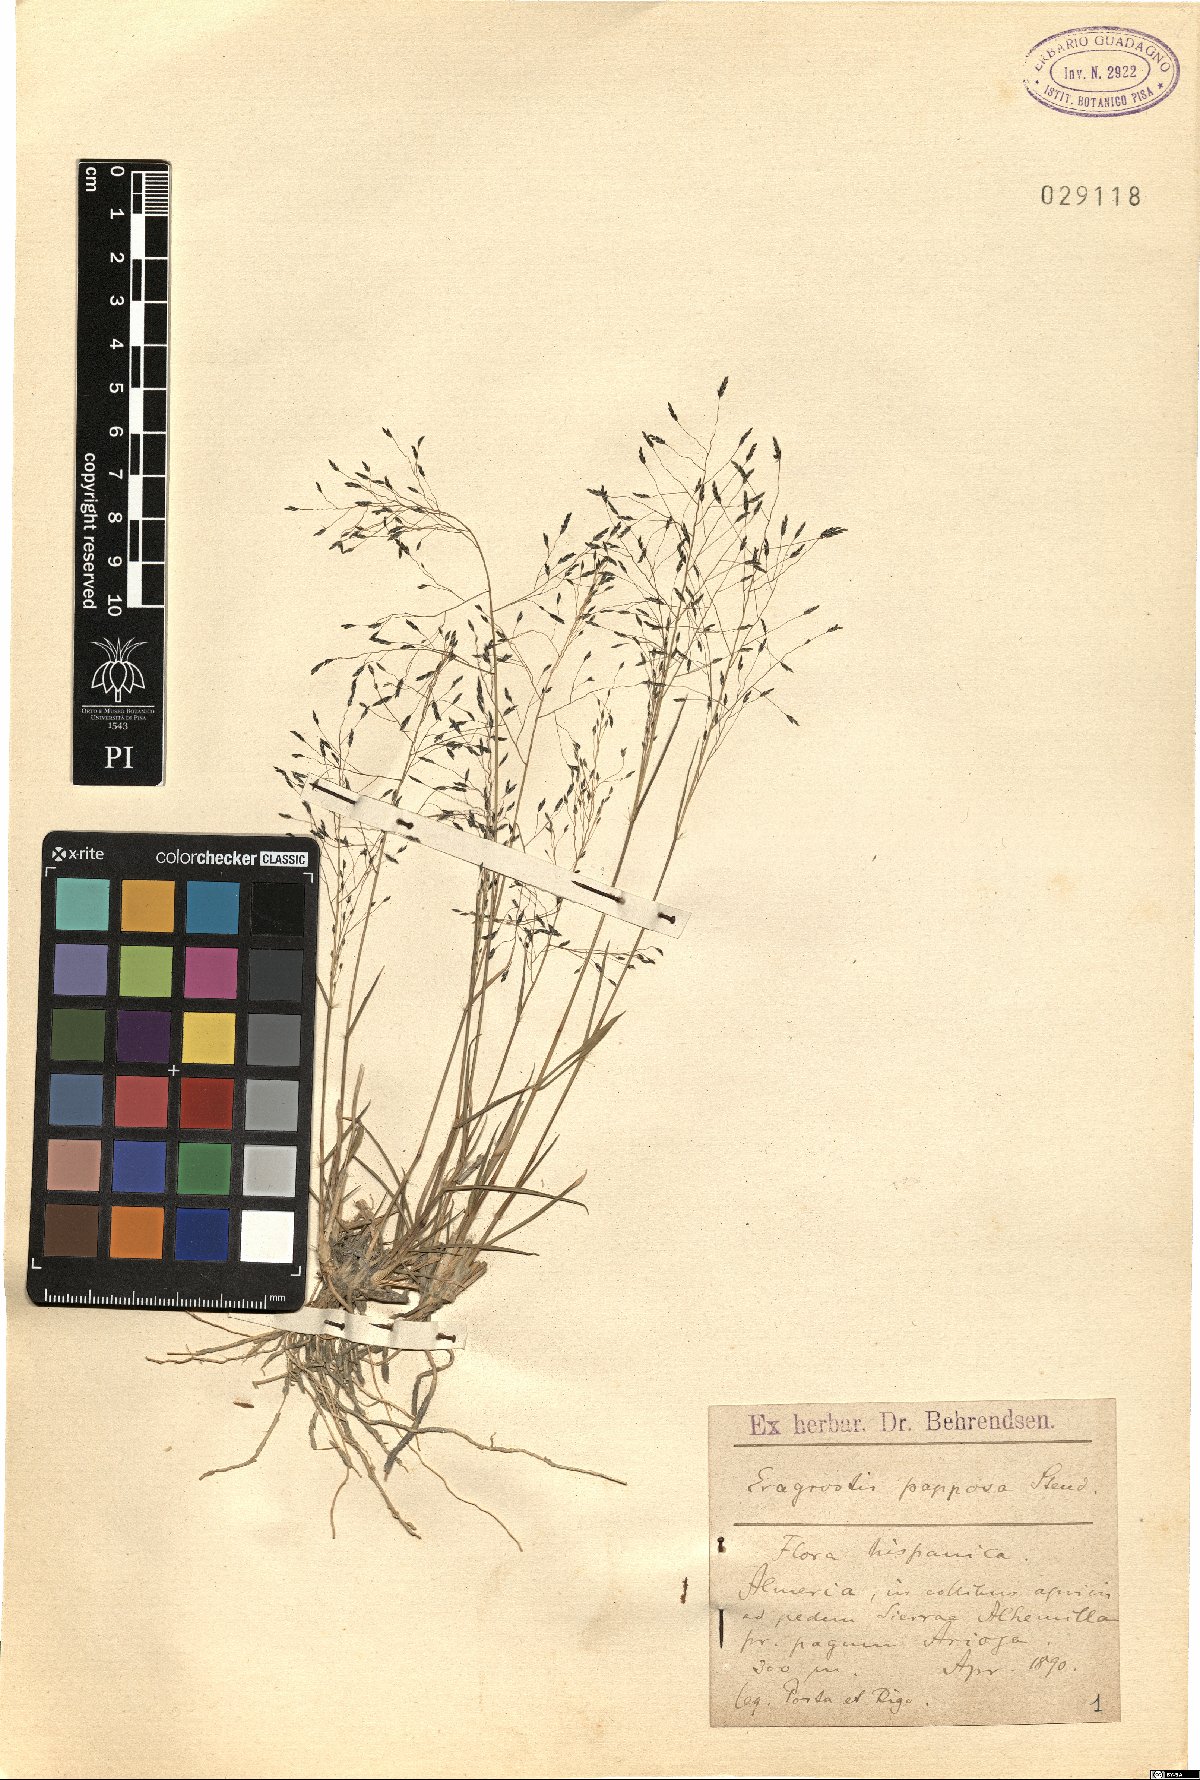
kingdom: Plantae
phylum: Tracheophyta
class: Liliopsida
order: Poales
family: Poaceae
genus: Eragrostis
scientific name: Eragrostis papposa
